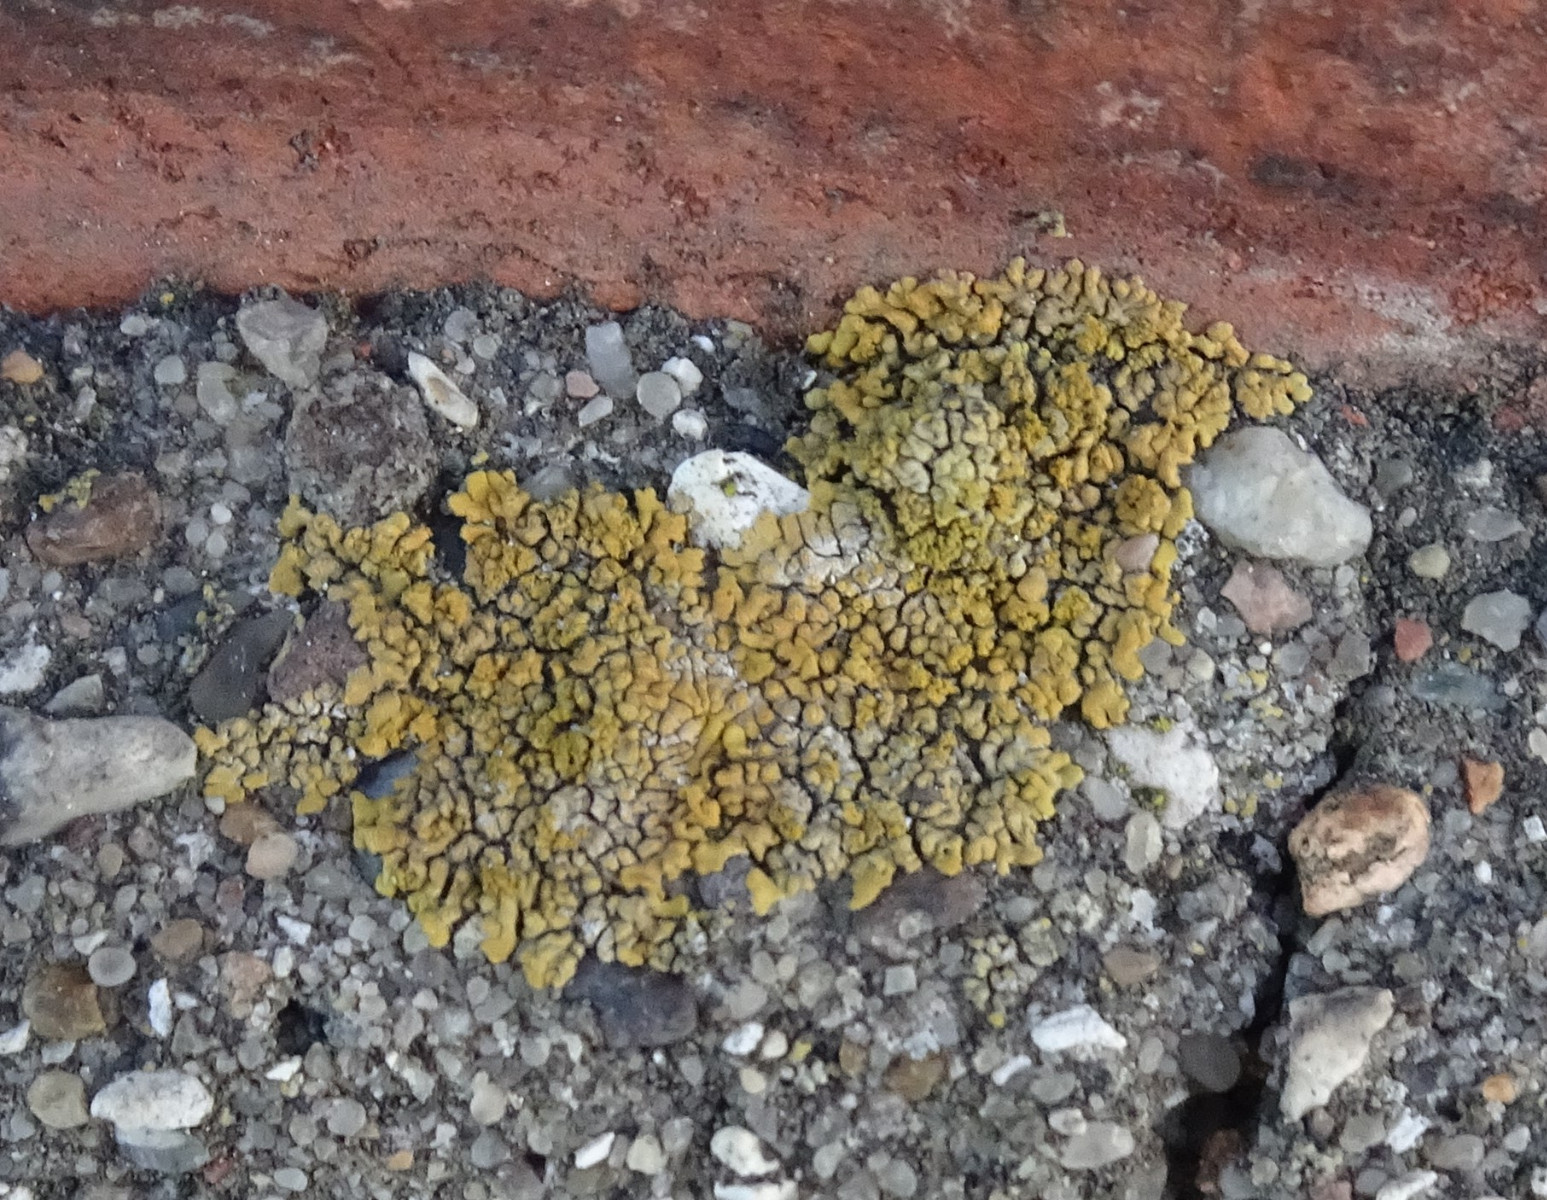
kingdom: Fungi
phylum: Ascomycota
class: Lecanoromycetes
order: Teloschistales
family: Teloschistaceae
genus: Calogaya
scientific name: Calogaya decipiens
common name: knudret orangelav
